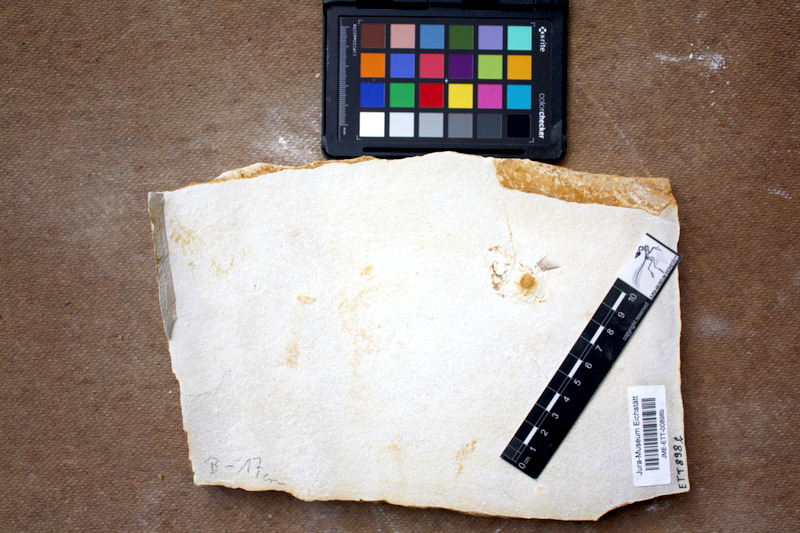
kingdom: Animalia
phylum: Chordata
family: Macrosemiidae
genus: Notagogus
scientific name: Notagogus denticulatus
